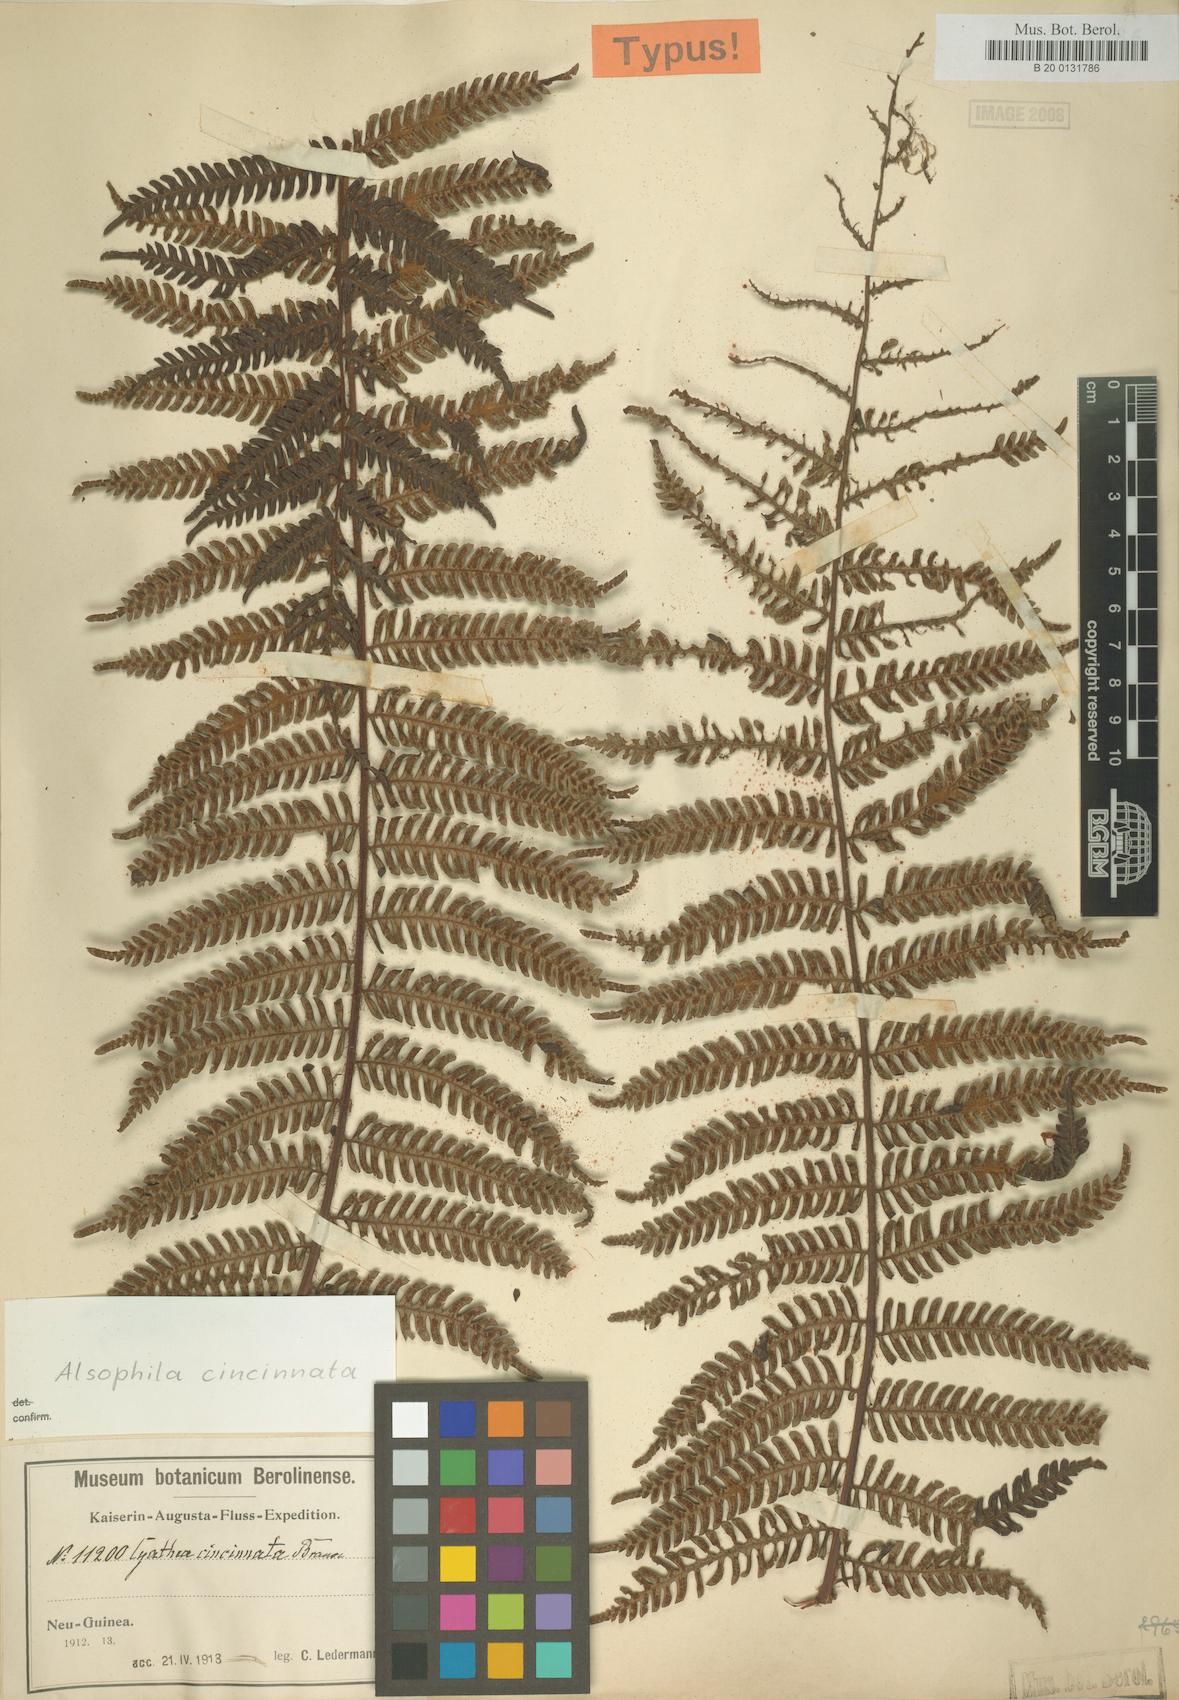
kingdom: Plantae
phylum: Tracheophyta
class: Polypodiopsida
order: Cyatheales
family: Cyatheaceae
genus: Alsophila
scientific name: Alsophila cincinnata
